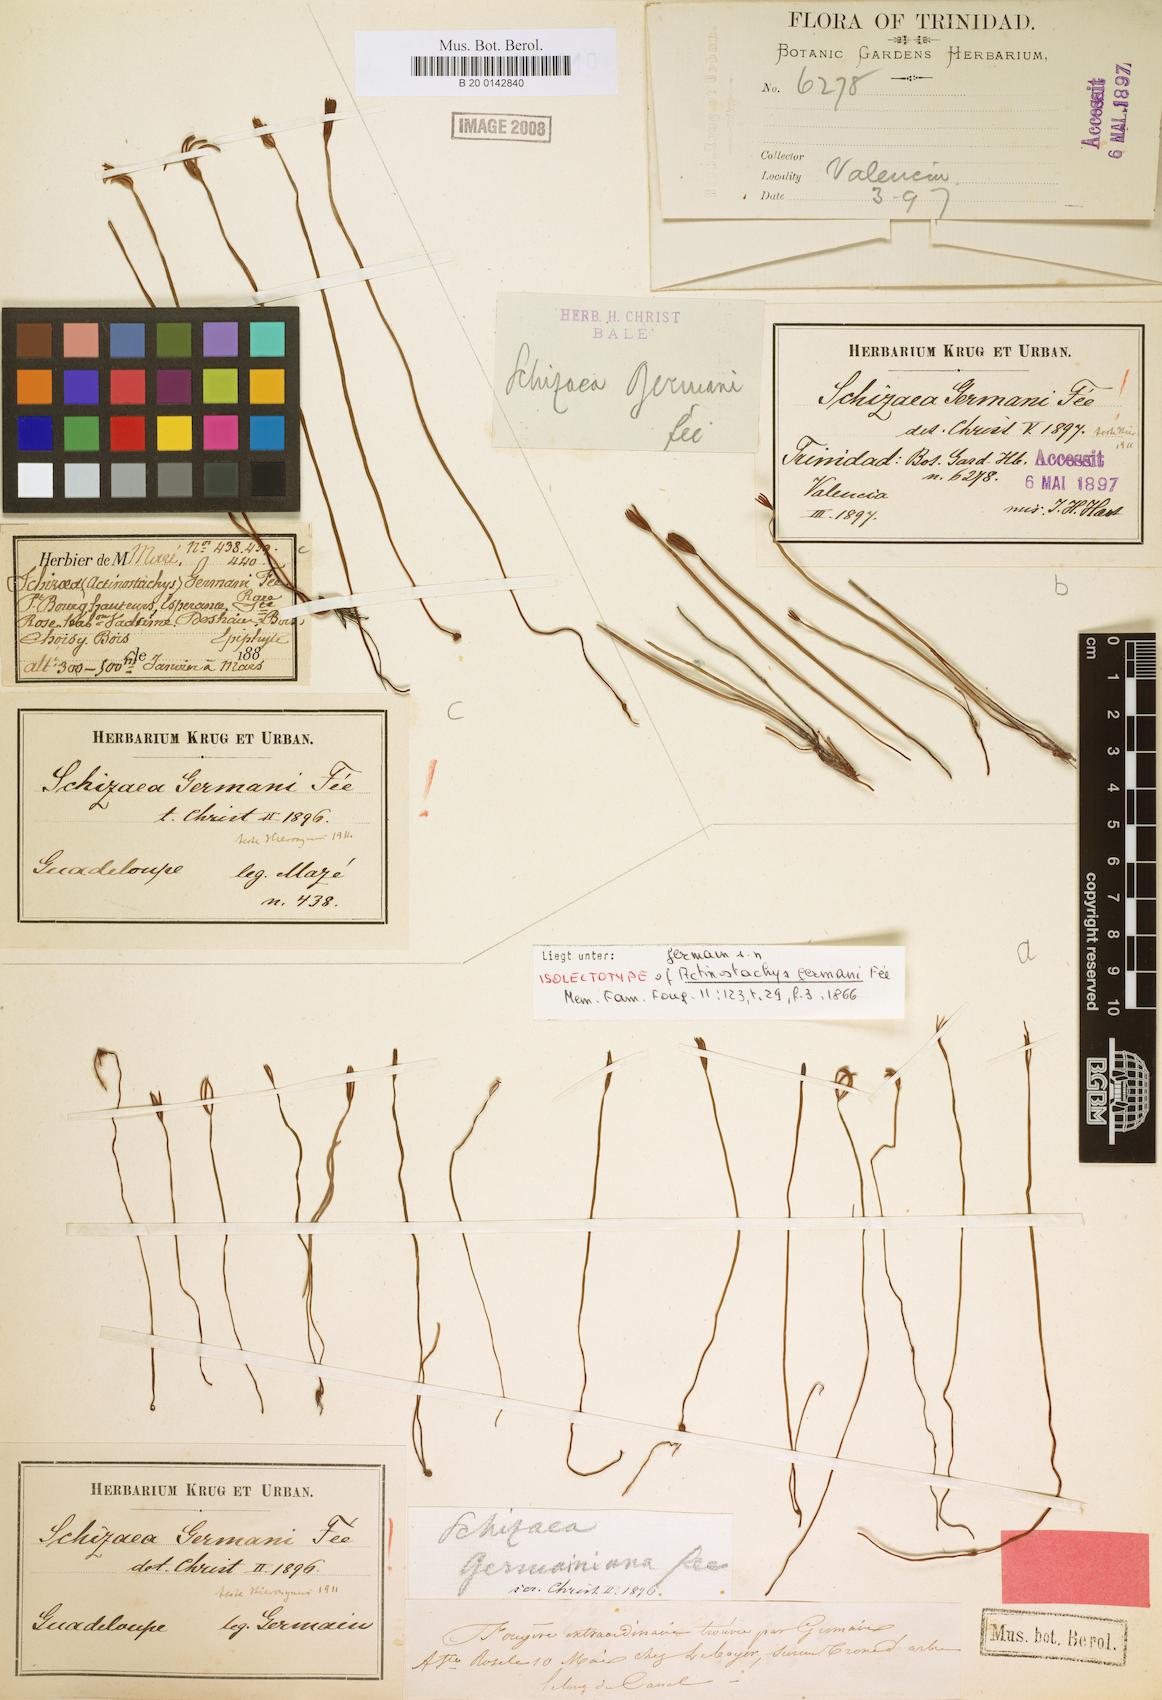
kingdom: Plantae
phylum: Tracheophyta
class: Polypodiopsida
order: Schizaeales
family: Schizaeaceae
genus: Actinostachys
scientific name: Actinostachys pennula
